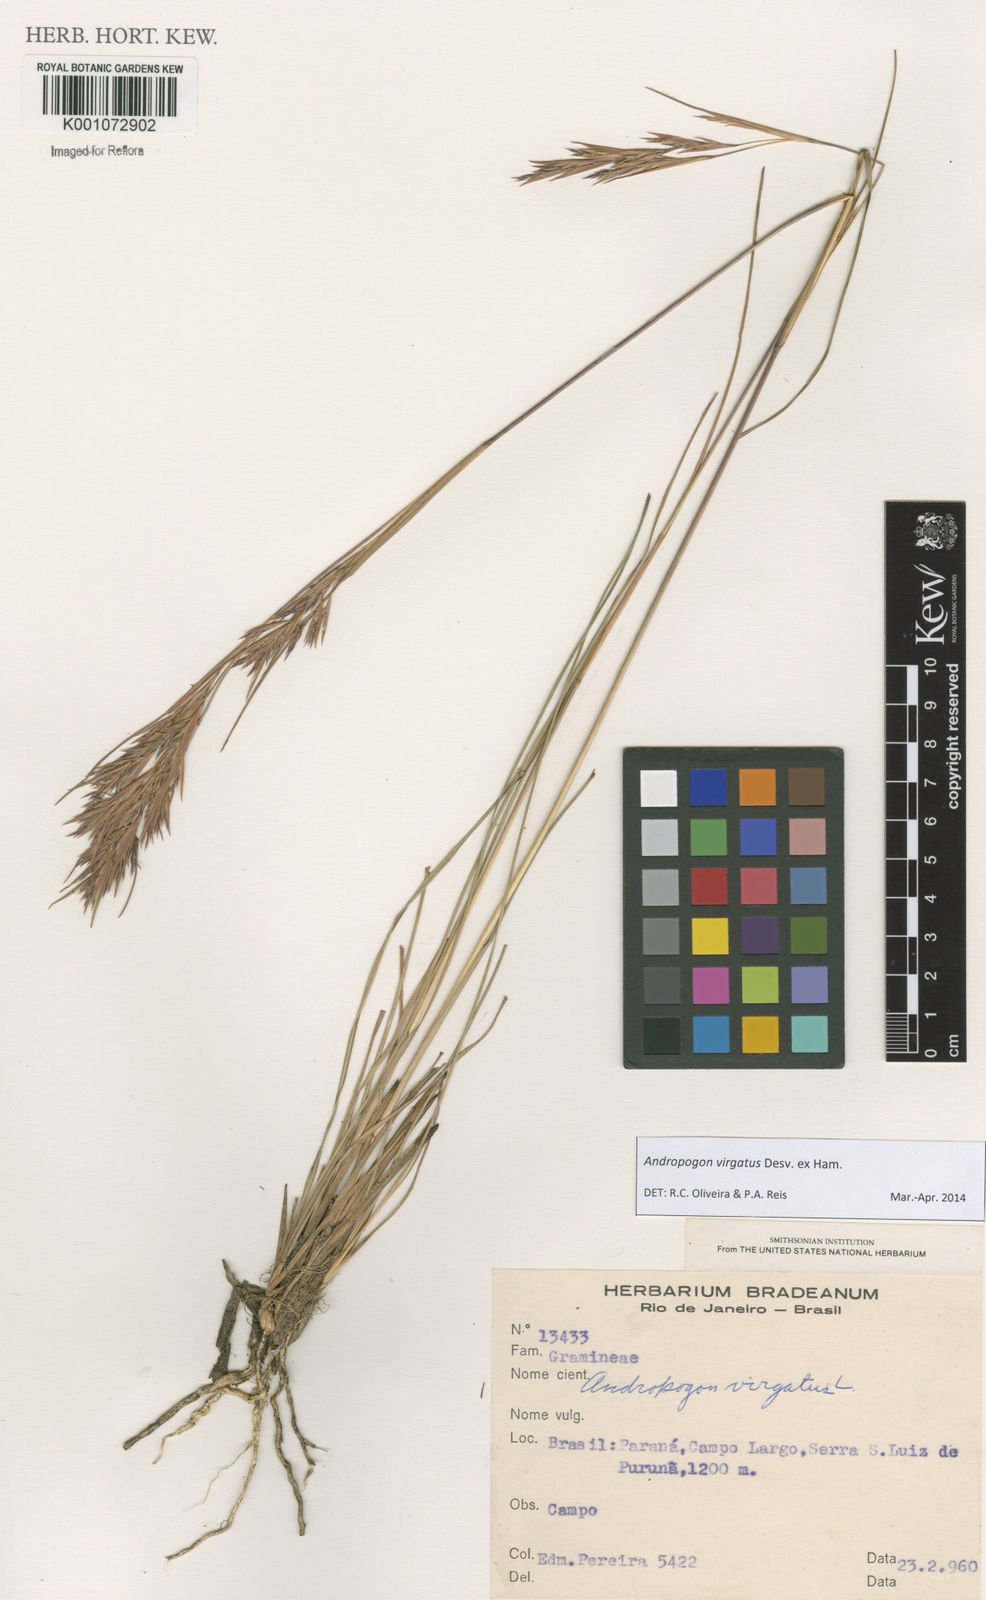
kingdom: Plantae
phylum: Tracheophyta
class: Liliopsida
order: Poales
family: Poaceae
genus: Andropogon
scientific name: Andropogon virgatus
